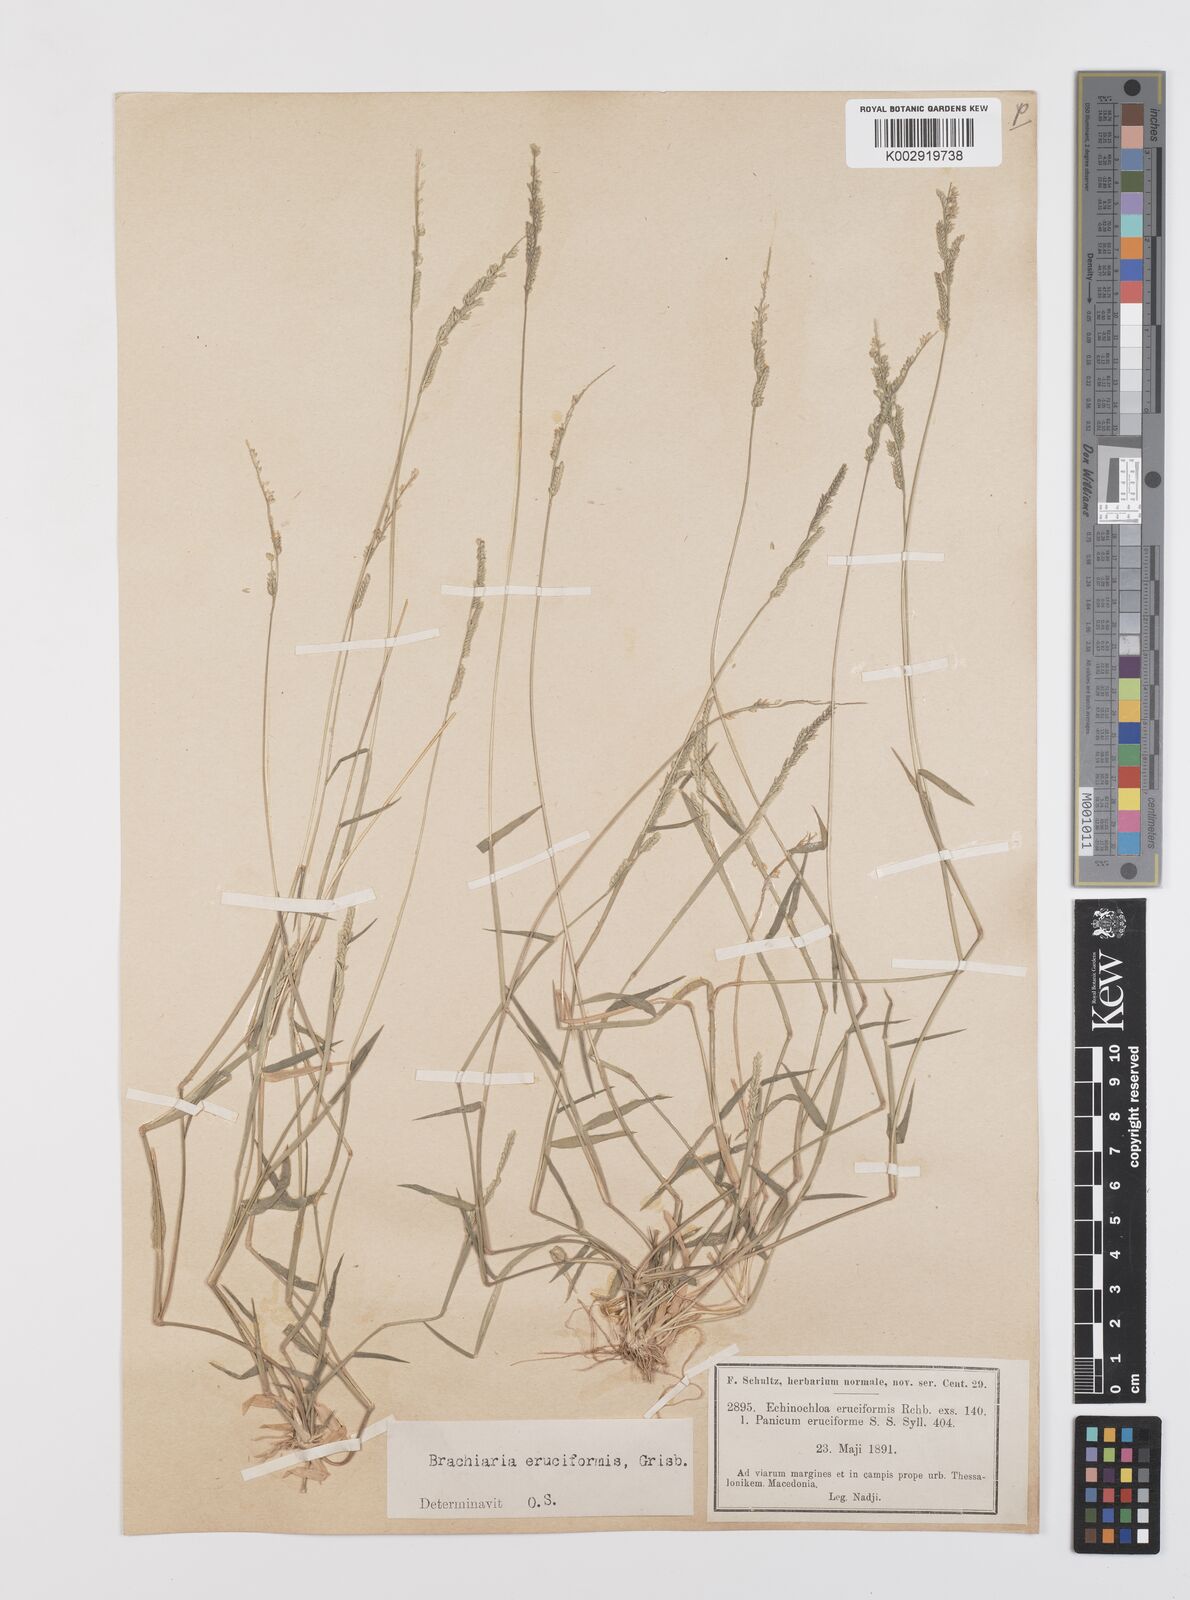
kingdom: Plantae
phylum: Tracheophyta
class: Liliopsida
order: Poales
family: Poaceae
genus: Moorochloa
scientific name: Moorochloa eruciformis
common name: Sweet signalgrass
